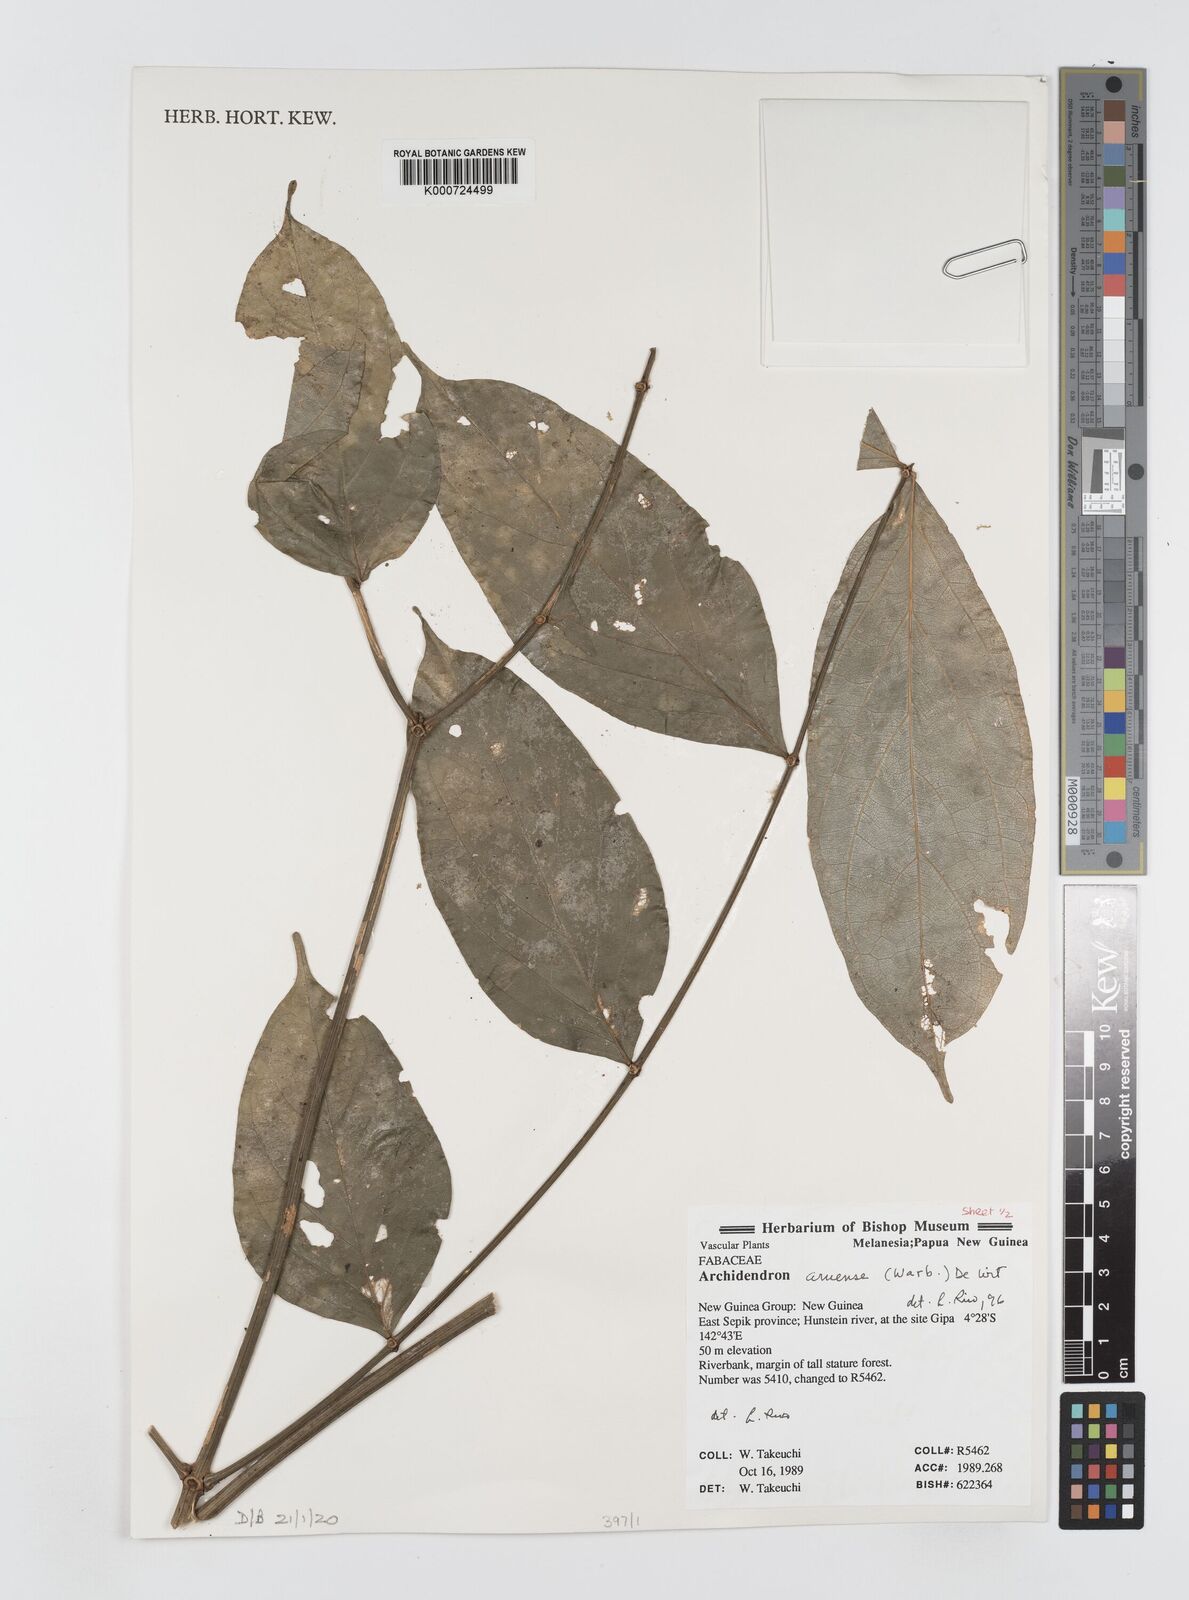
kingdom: Plantae
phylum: Tracheophyta
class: Magnoliopsida
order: Fabales
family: Fabaceae
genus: Archidendron
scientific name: Archidendron aruense
